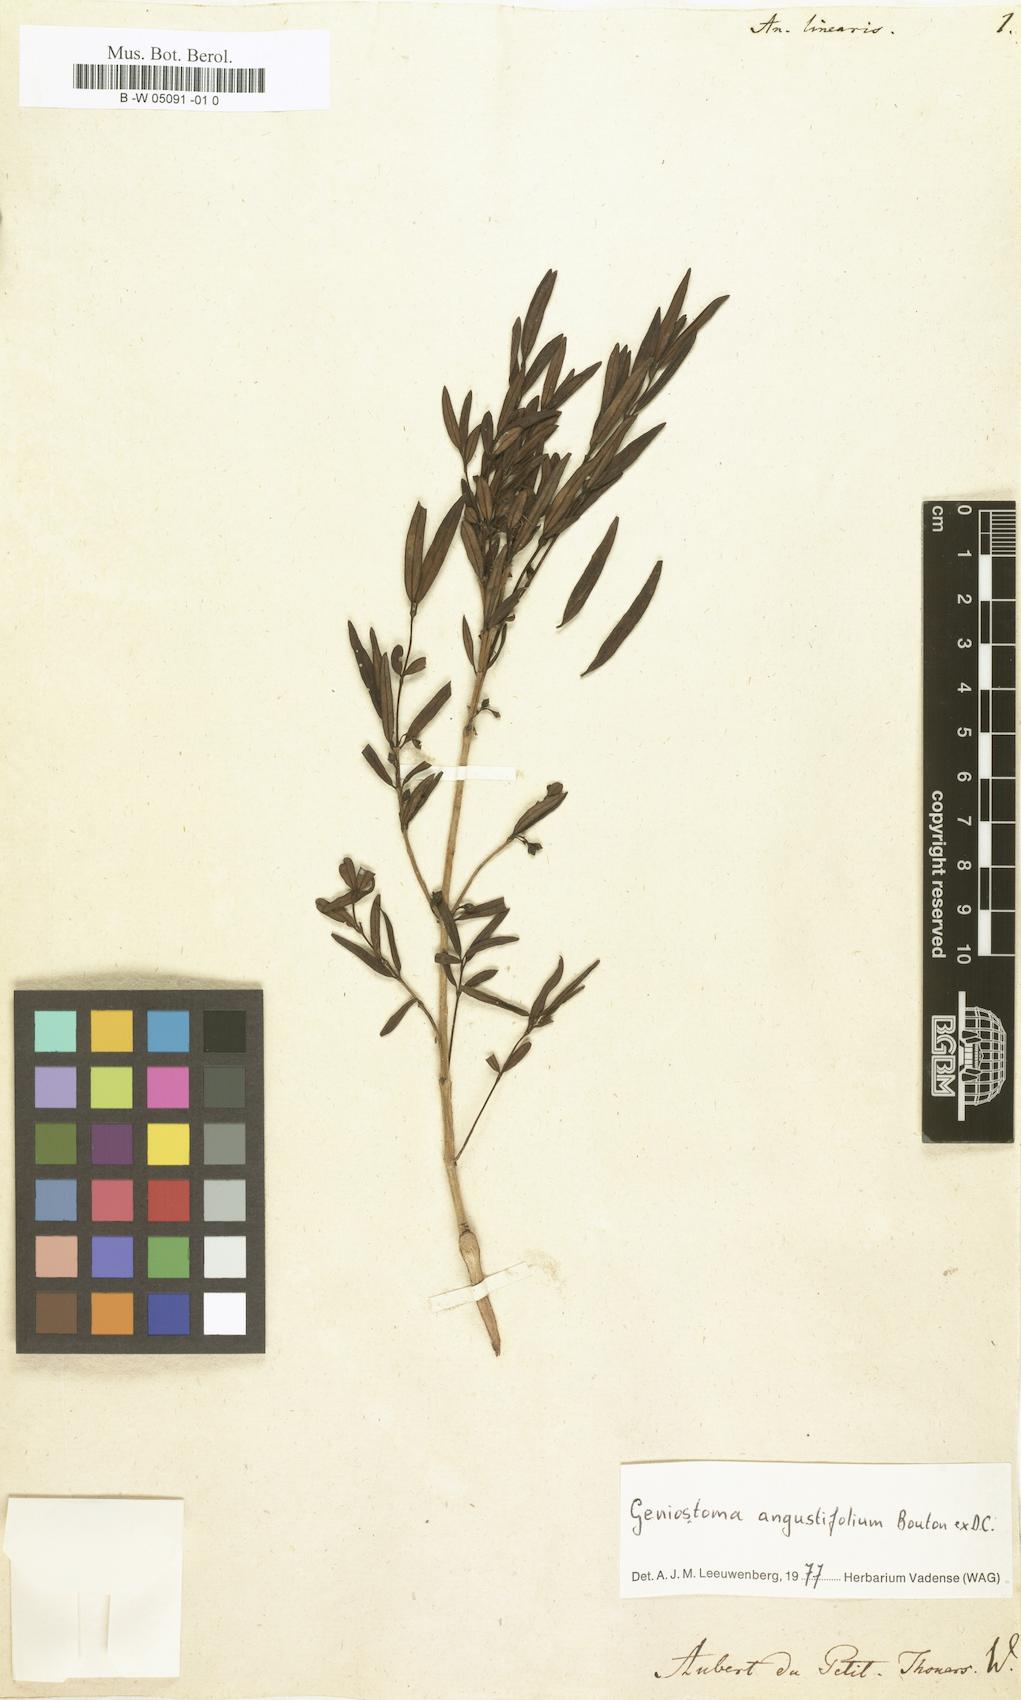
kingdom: Plantae
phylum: Tracheophyta
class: Magnoliopsida
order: Gentianales
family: Loganiaceae
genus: Anassera
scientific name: Anassera
